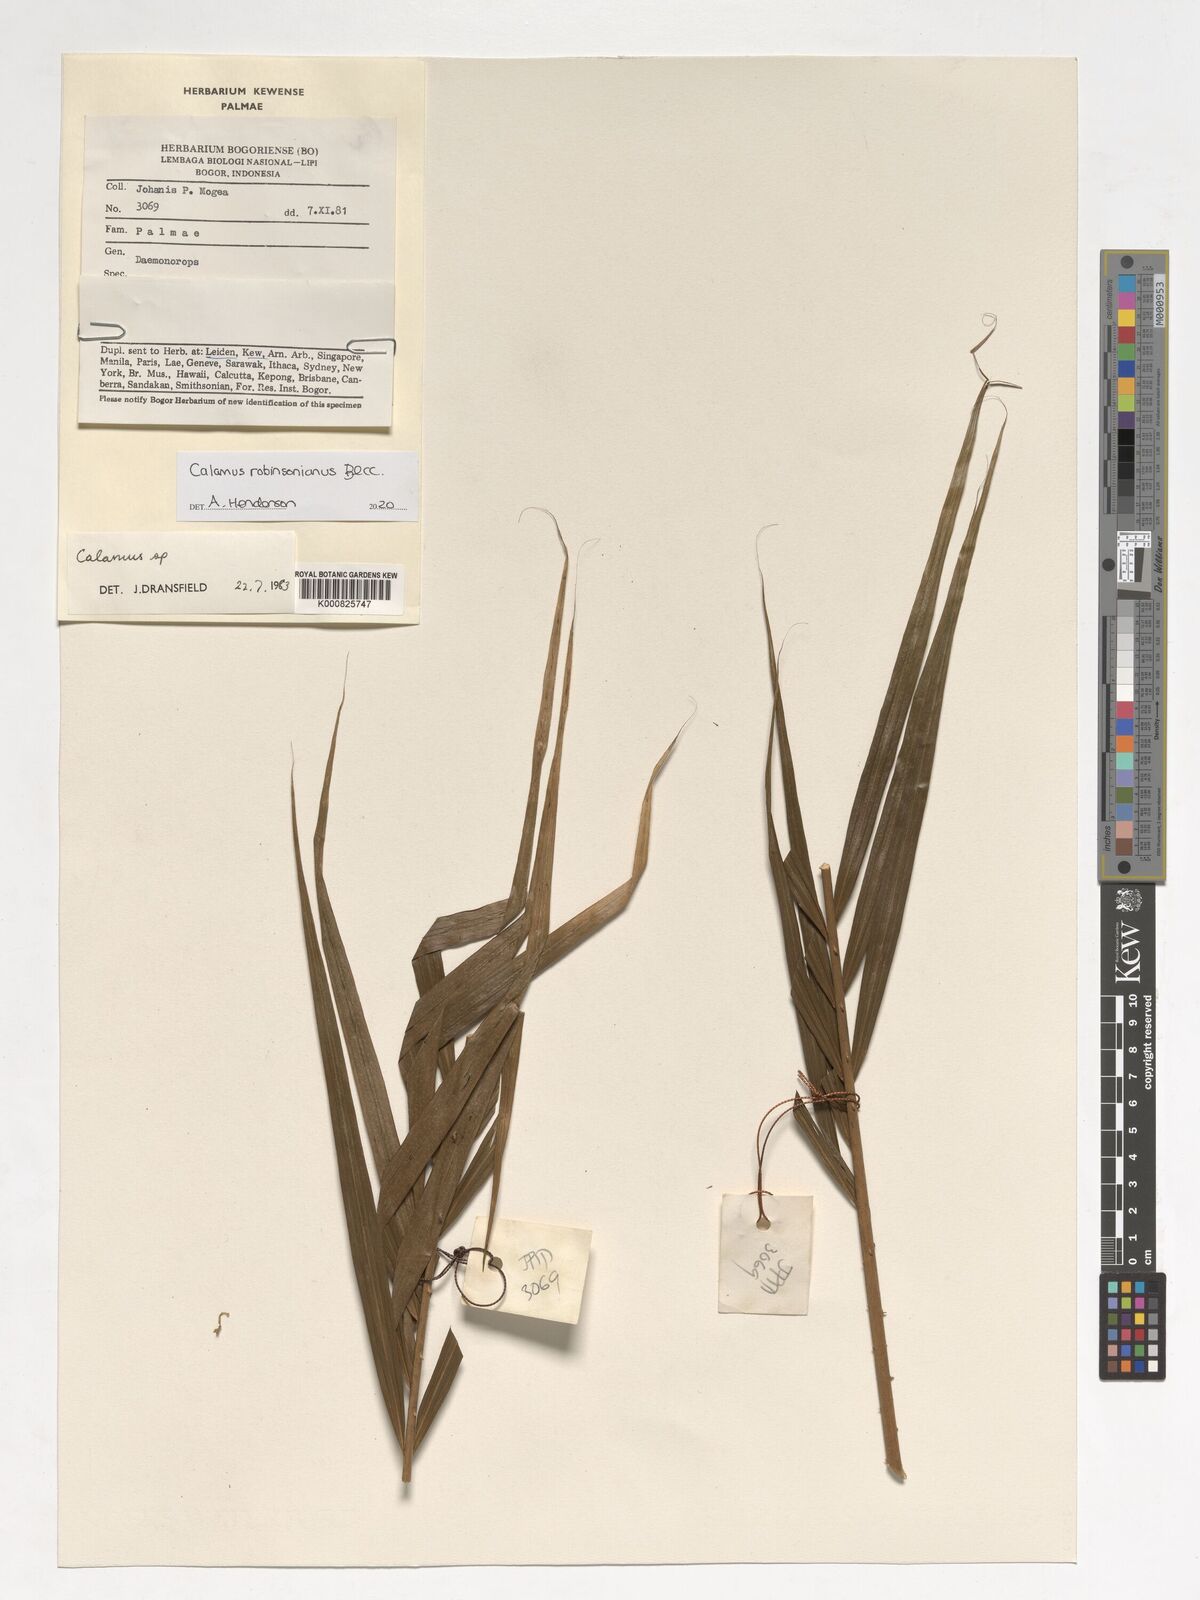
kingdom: Plantae
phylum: Tracheophyta
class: Liliopsida
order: Arecales
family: Arecaceae
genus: Calamus
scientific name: Calamus robinsonianus
